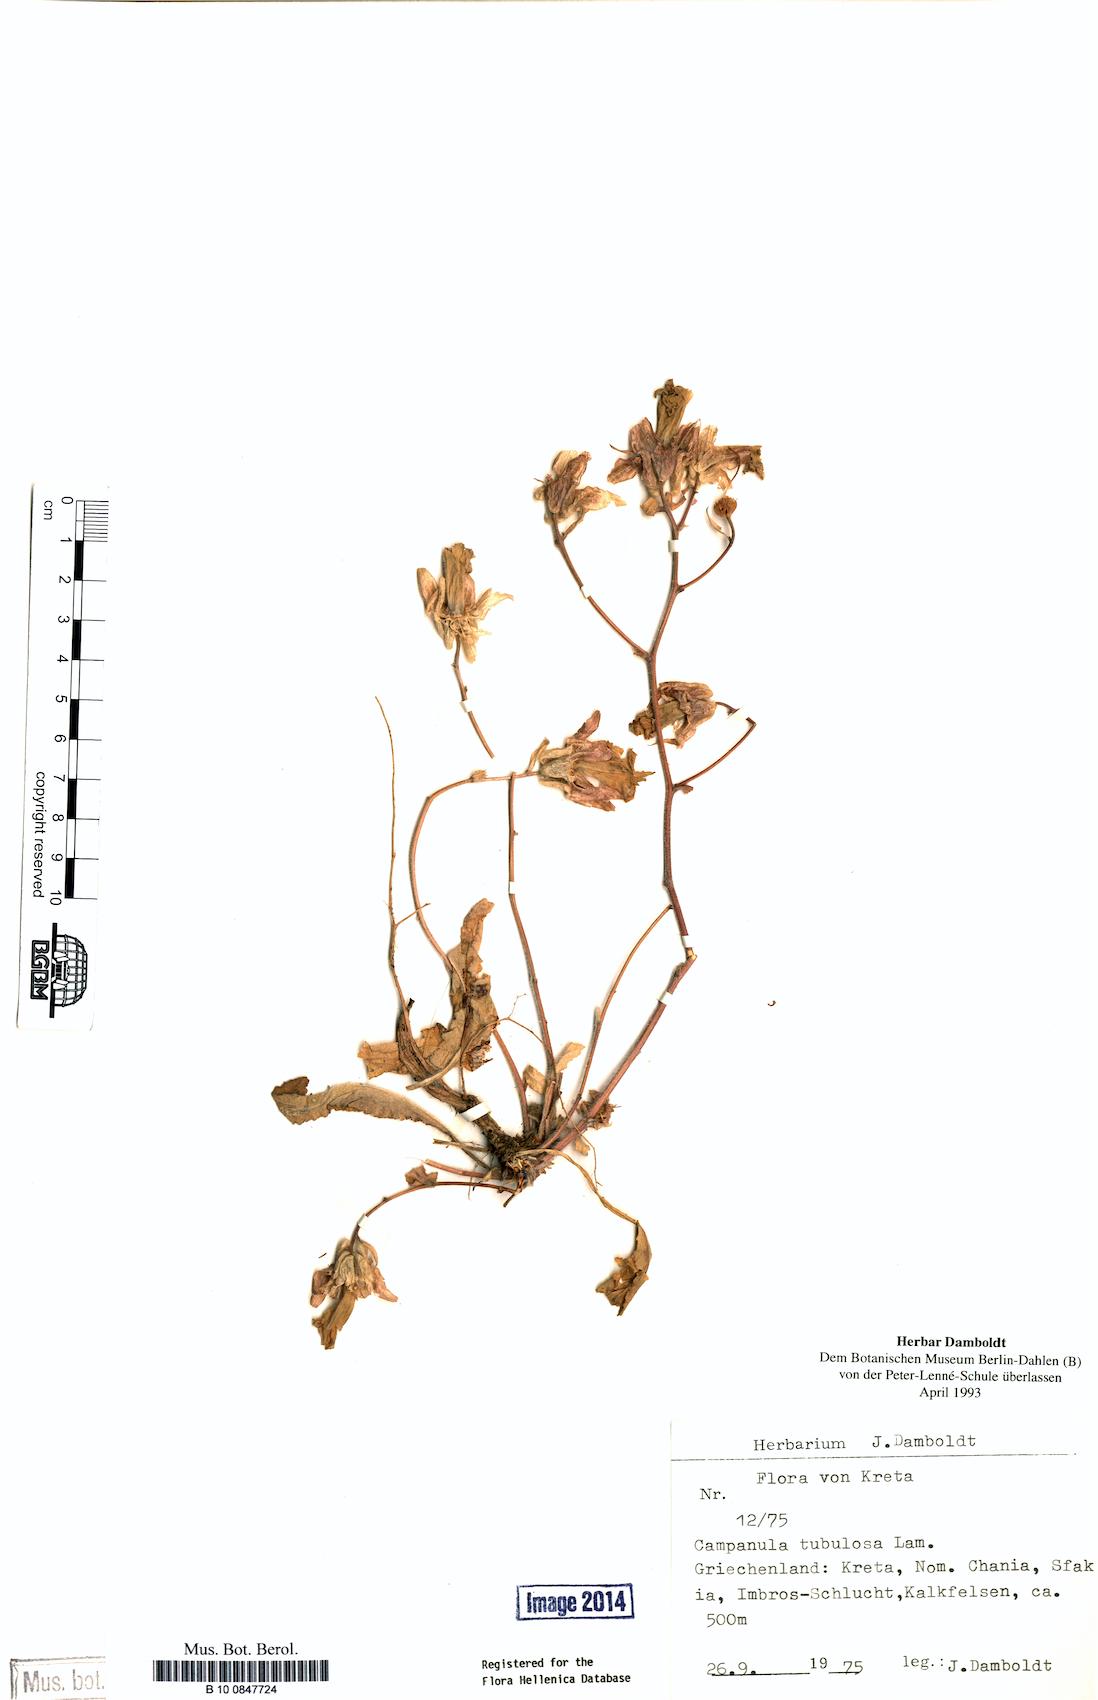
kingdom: Plantae
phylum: Tracheophyta
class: Magnoliopsida
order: Asterales
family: Campanulaceae
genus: Campanula
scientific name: Campanula tubulosa
